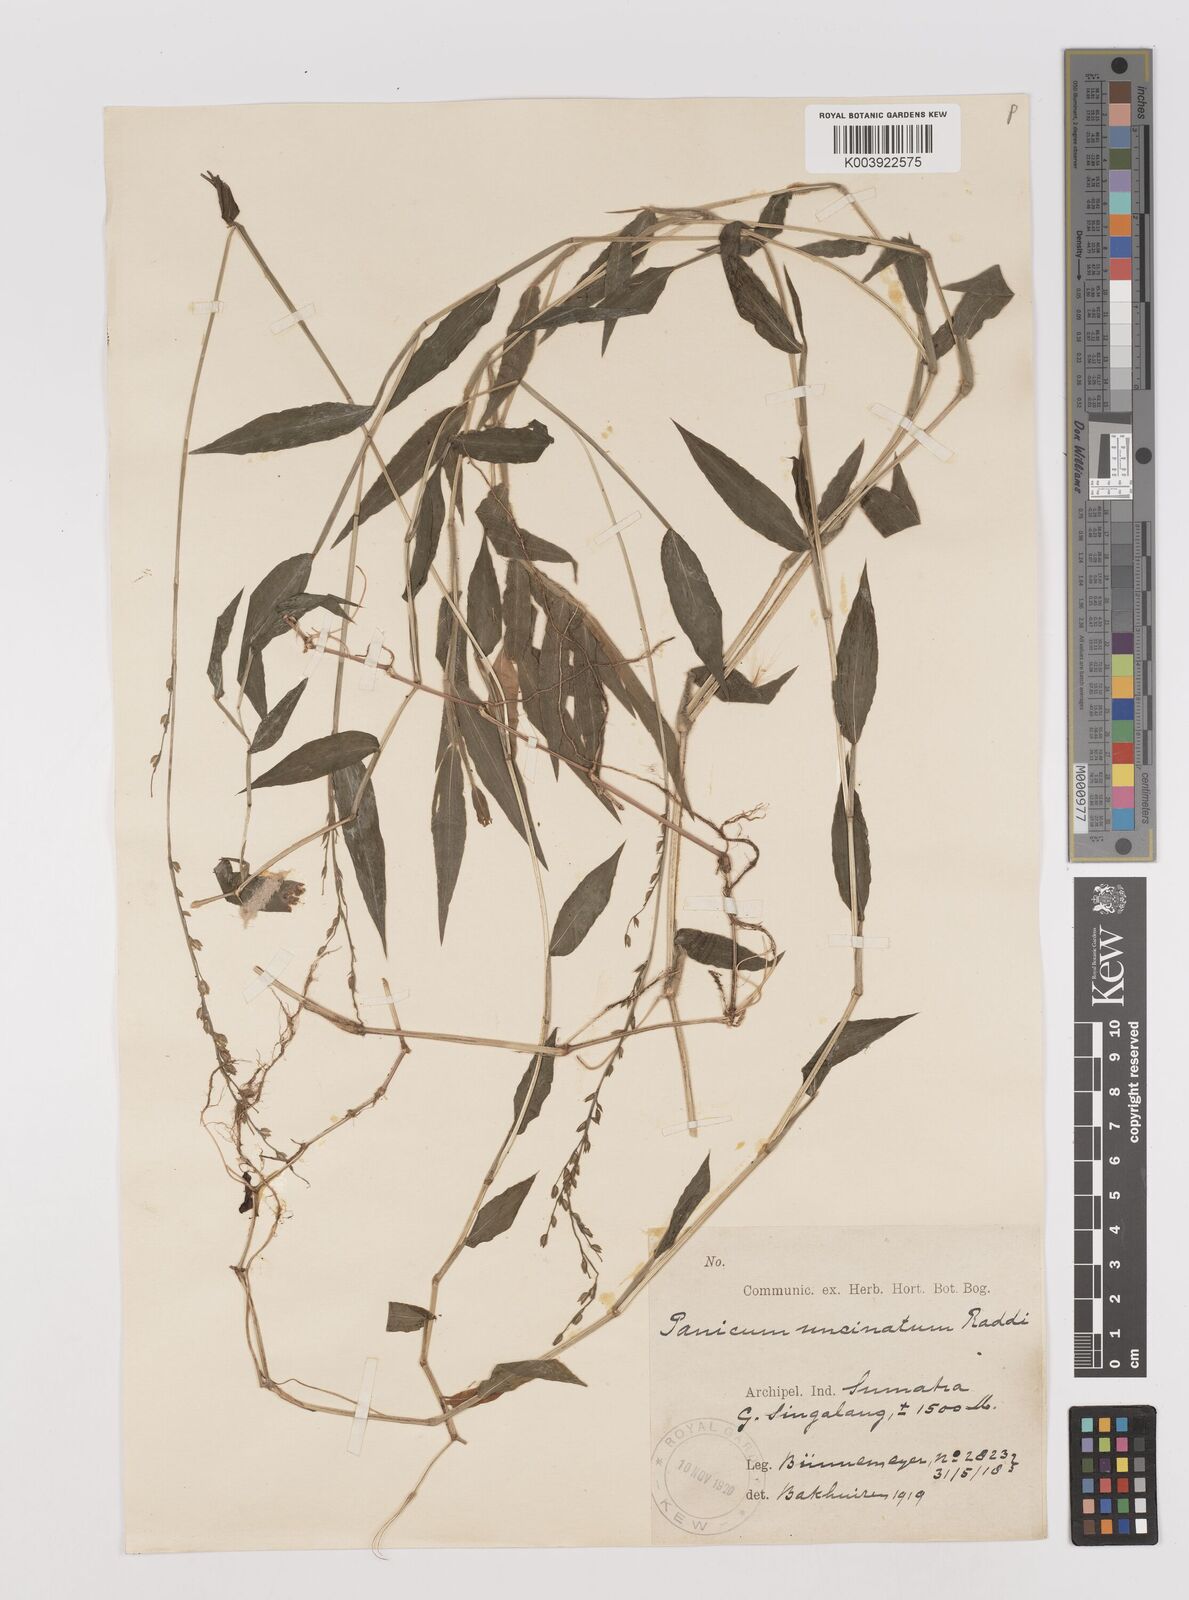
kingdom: Plantae
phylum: Tracheophyta
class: Liliopsida
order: Poales
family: Poaceae
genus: Pseudechinolaena
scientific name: Pseudechinolaena polystachya
